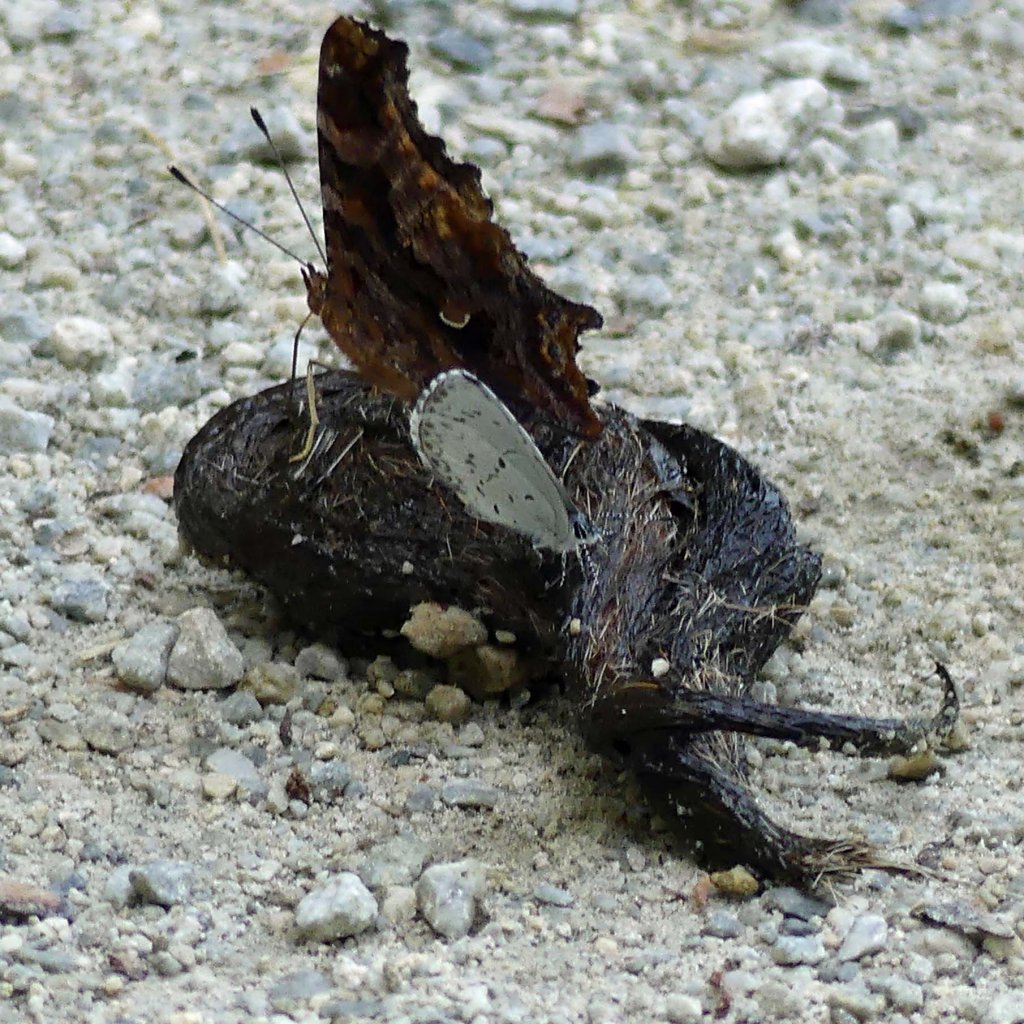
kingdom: Animalia
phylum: Arthropoda
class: Insecta
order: Lepidoptera
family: Lycaenidae
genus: Celastrina
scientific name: Celastrina
